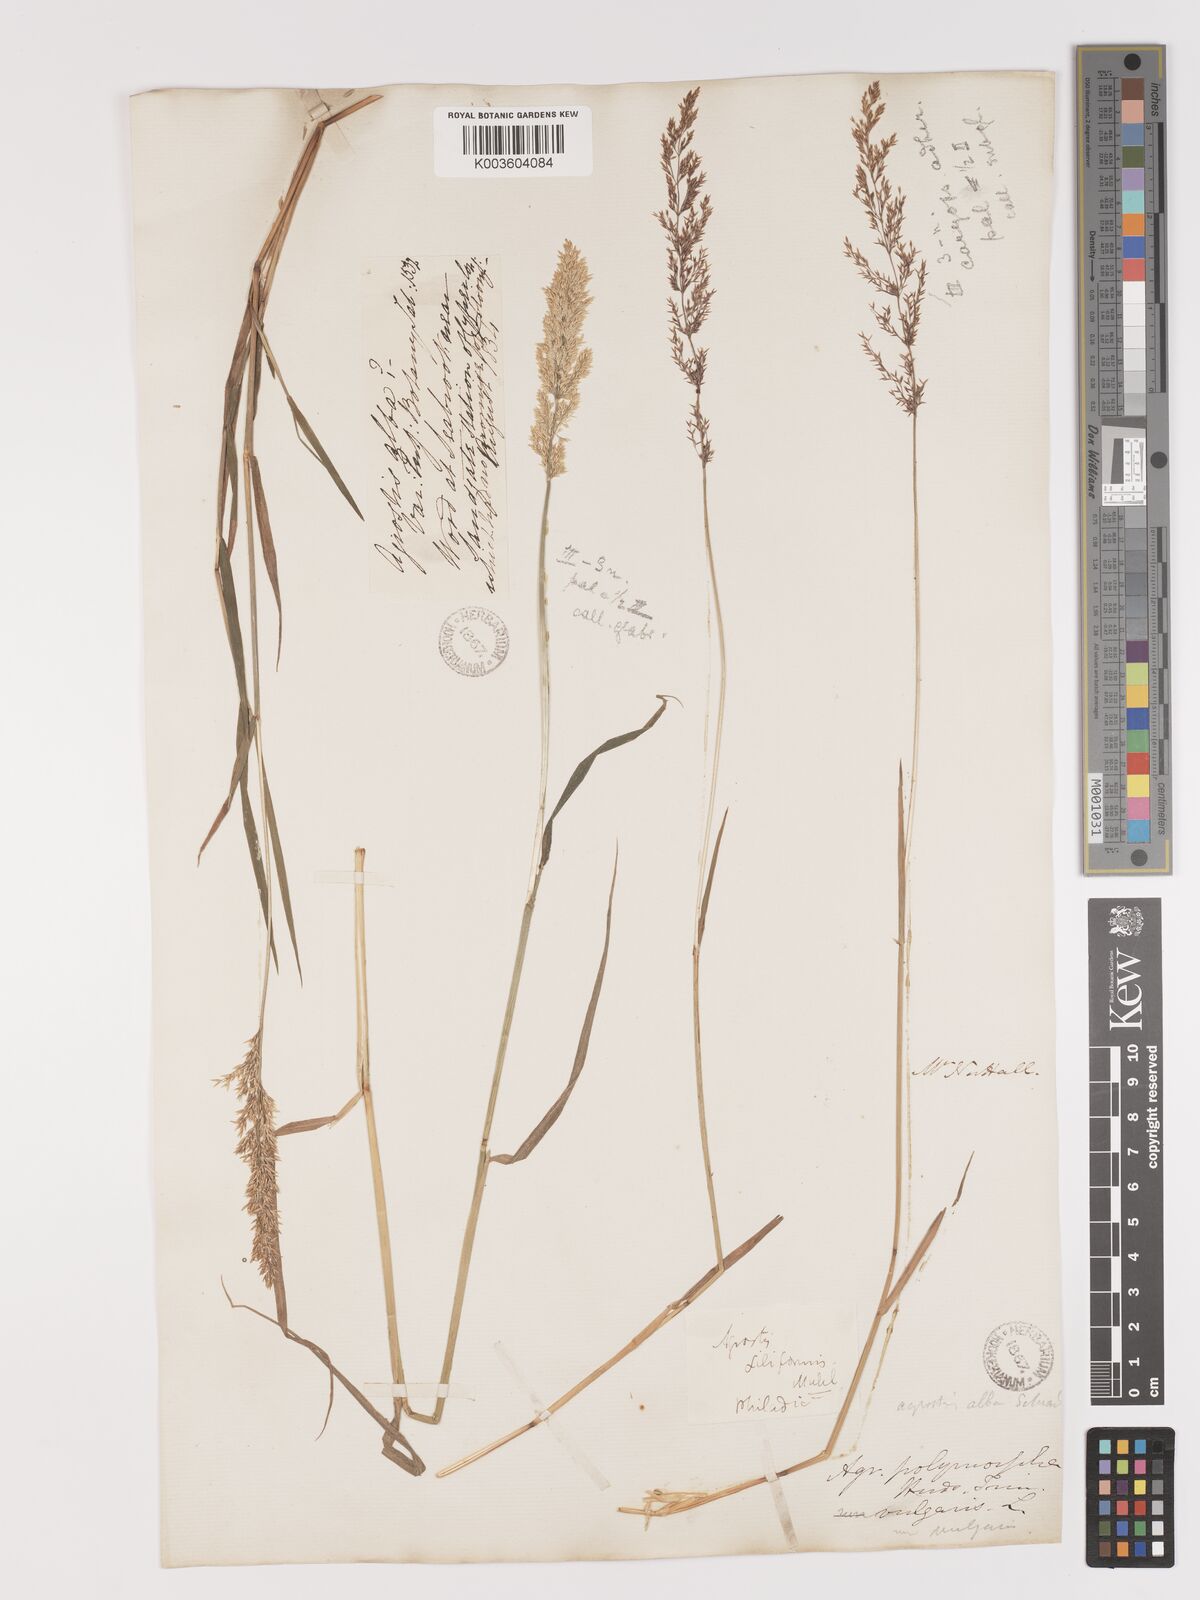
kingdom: Plantae
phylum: Tracheophyta
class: Liliopsida
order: Poales
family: Poaceae
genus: Agrostis
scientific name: Agrostis gigantea
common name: Black bent
